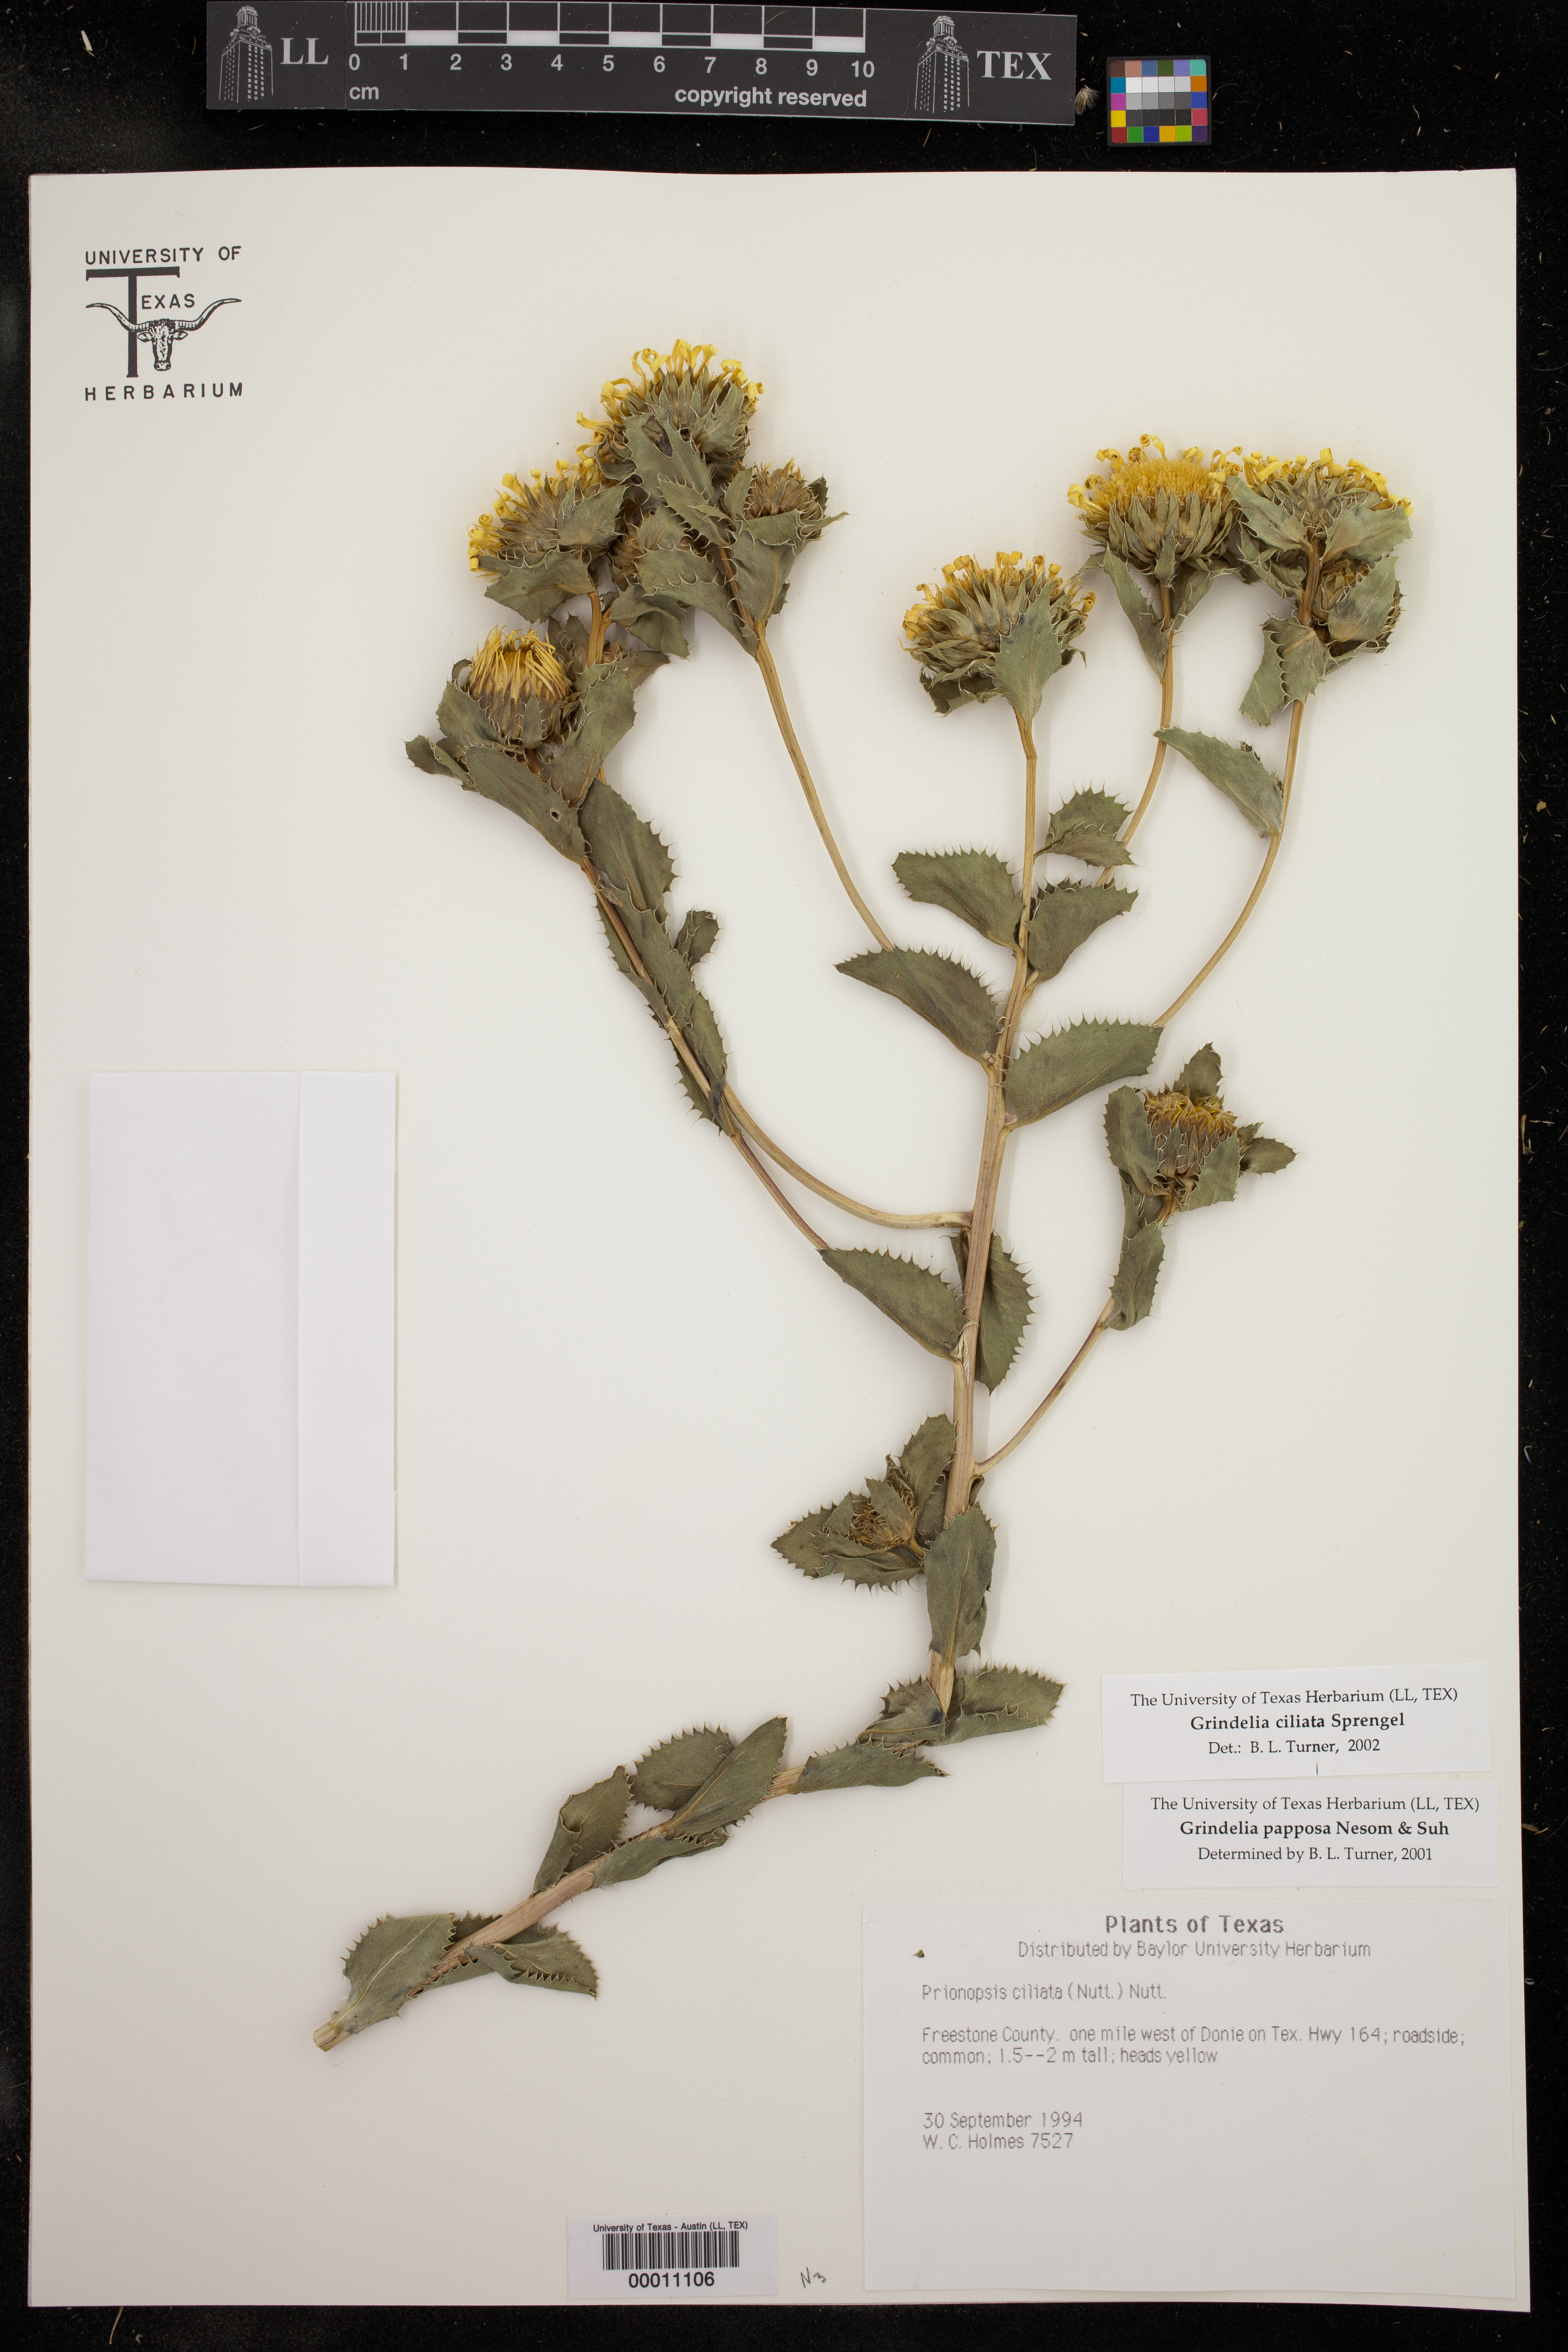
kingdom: Plantae
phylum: Tracheophyta
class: Magnoliopsida
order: Asterales
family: Asteraceae
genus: Grindelia
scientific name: Grindelia ciliata
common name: Goldenweed
